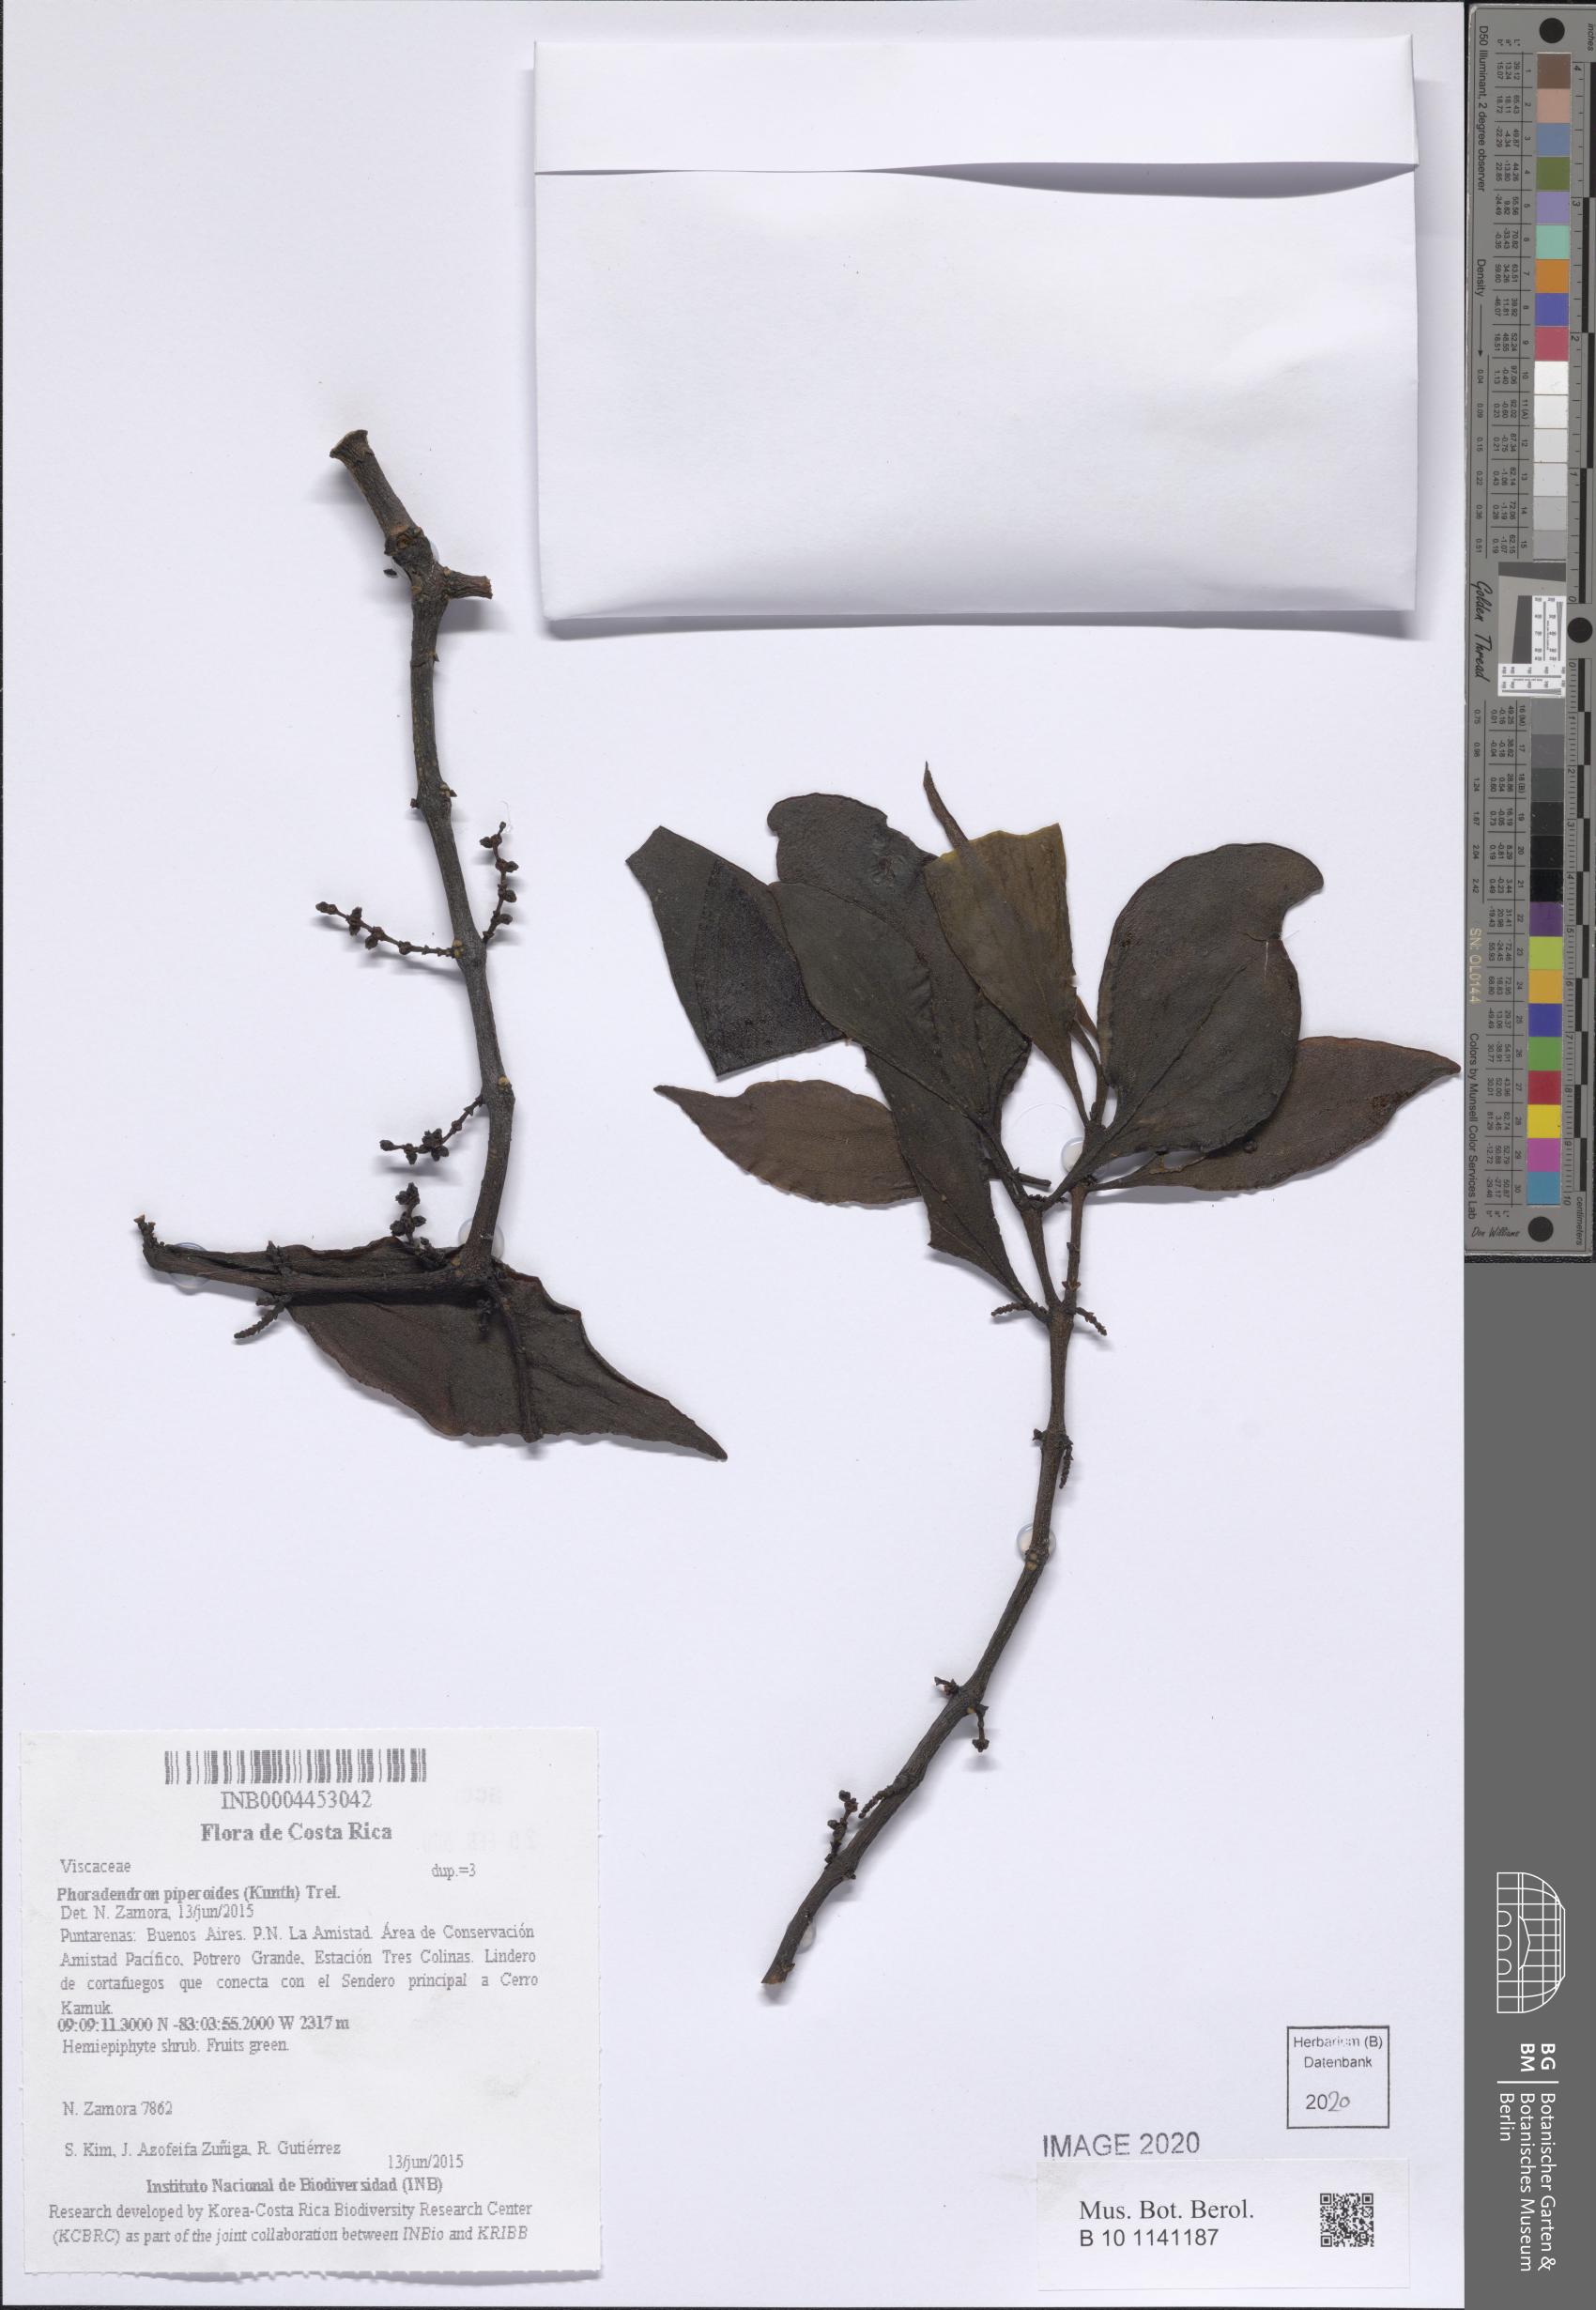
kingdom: Plantae
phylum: Tracheophyta
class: Magnoliopsida
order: Santalales
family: Viscaceae
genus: Phoradendron
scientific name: Phoradendron piperoides
